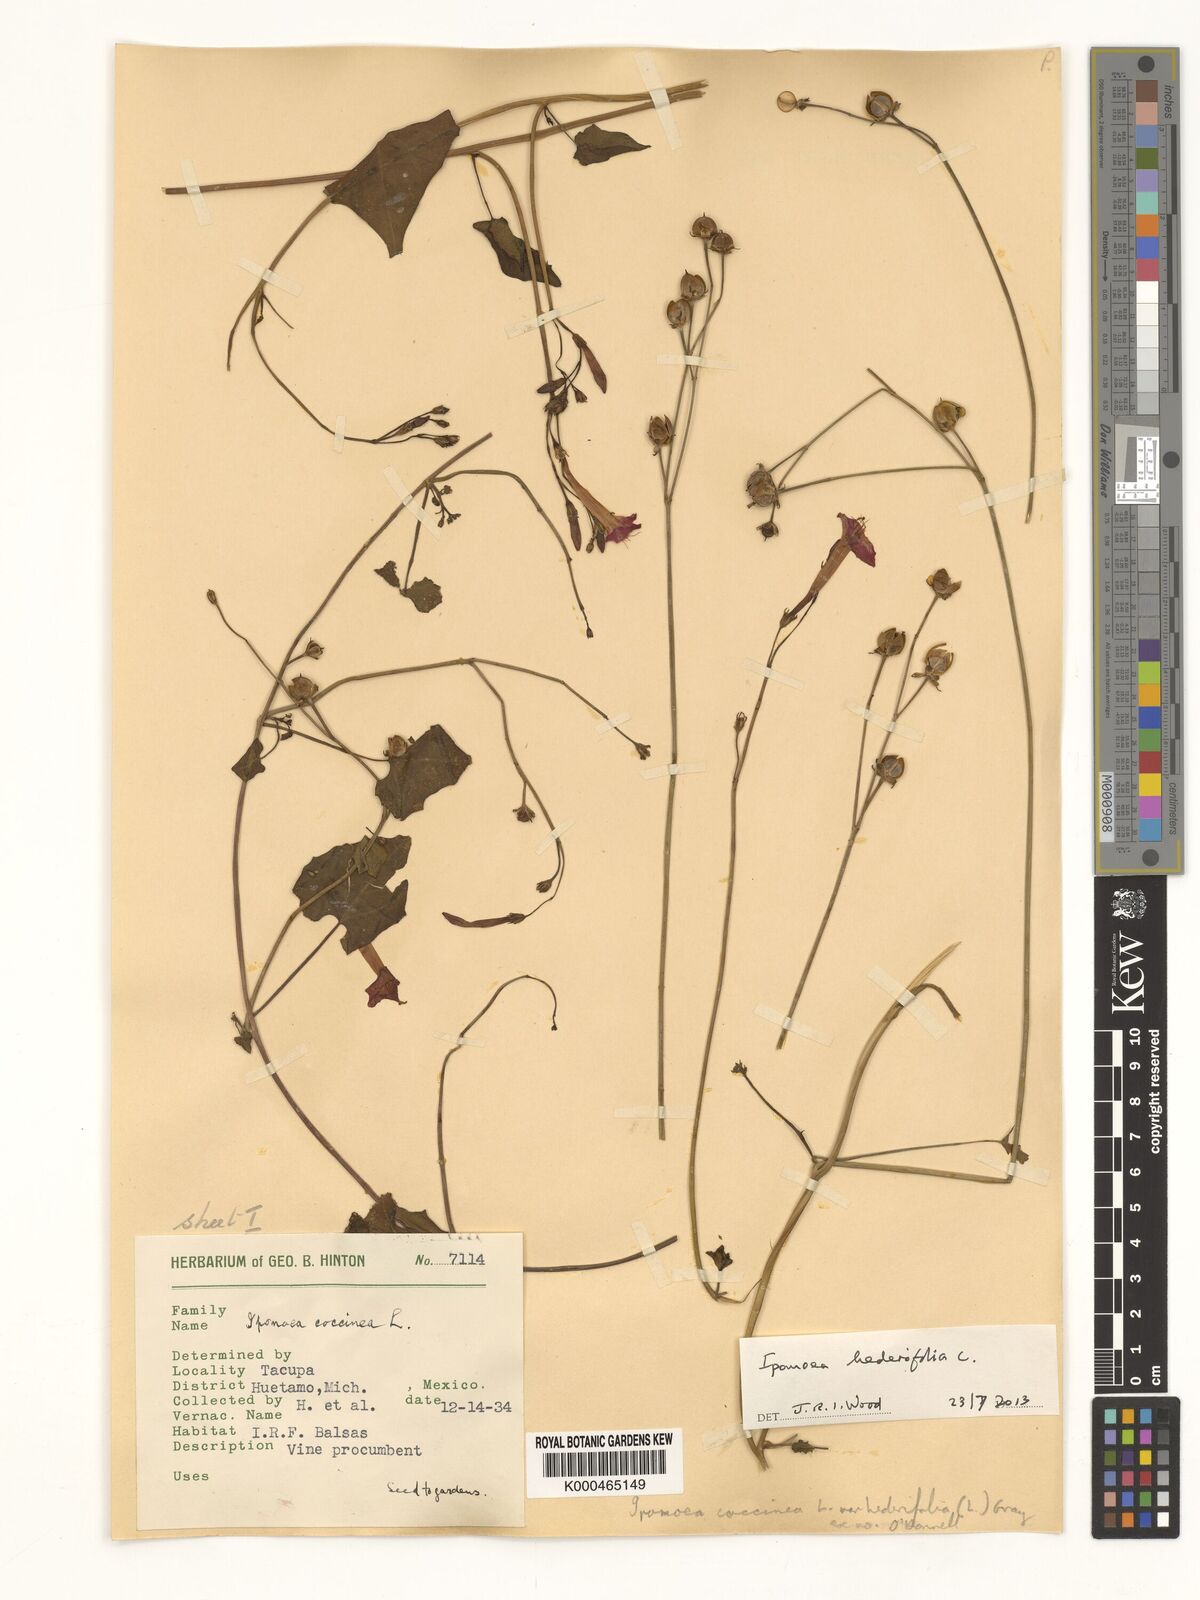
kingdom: Plantae
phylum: Tracheophyta
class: Magnoliopsida
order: Solanales
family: Convolvulaceae
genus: Ipomoea
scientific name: Ipomoea coccinea
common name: Red morning-glory
